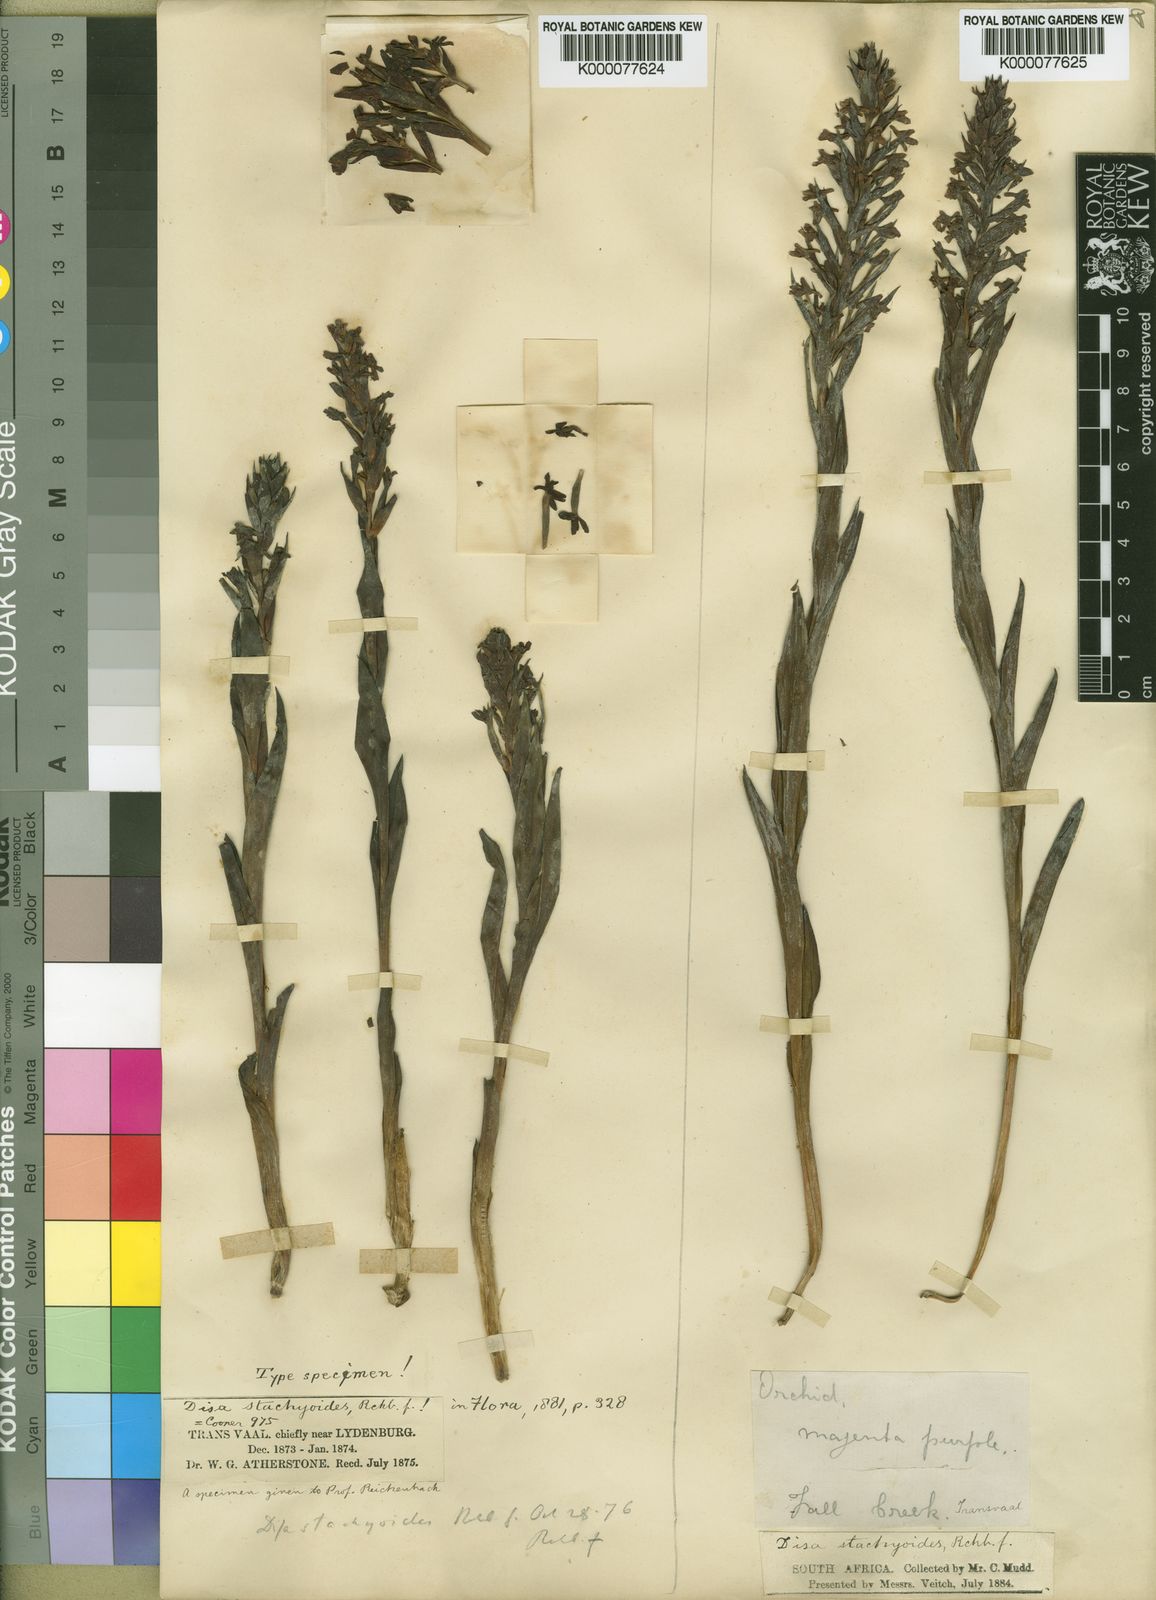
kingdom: Plantae
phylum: Tracheophyta
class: Liliopsida
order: Asparagales
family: Orchidaceae
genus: Disa
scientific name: Disa stachyoides
